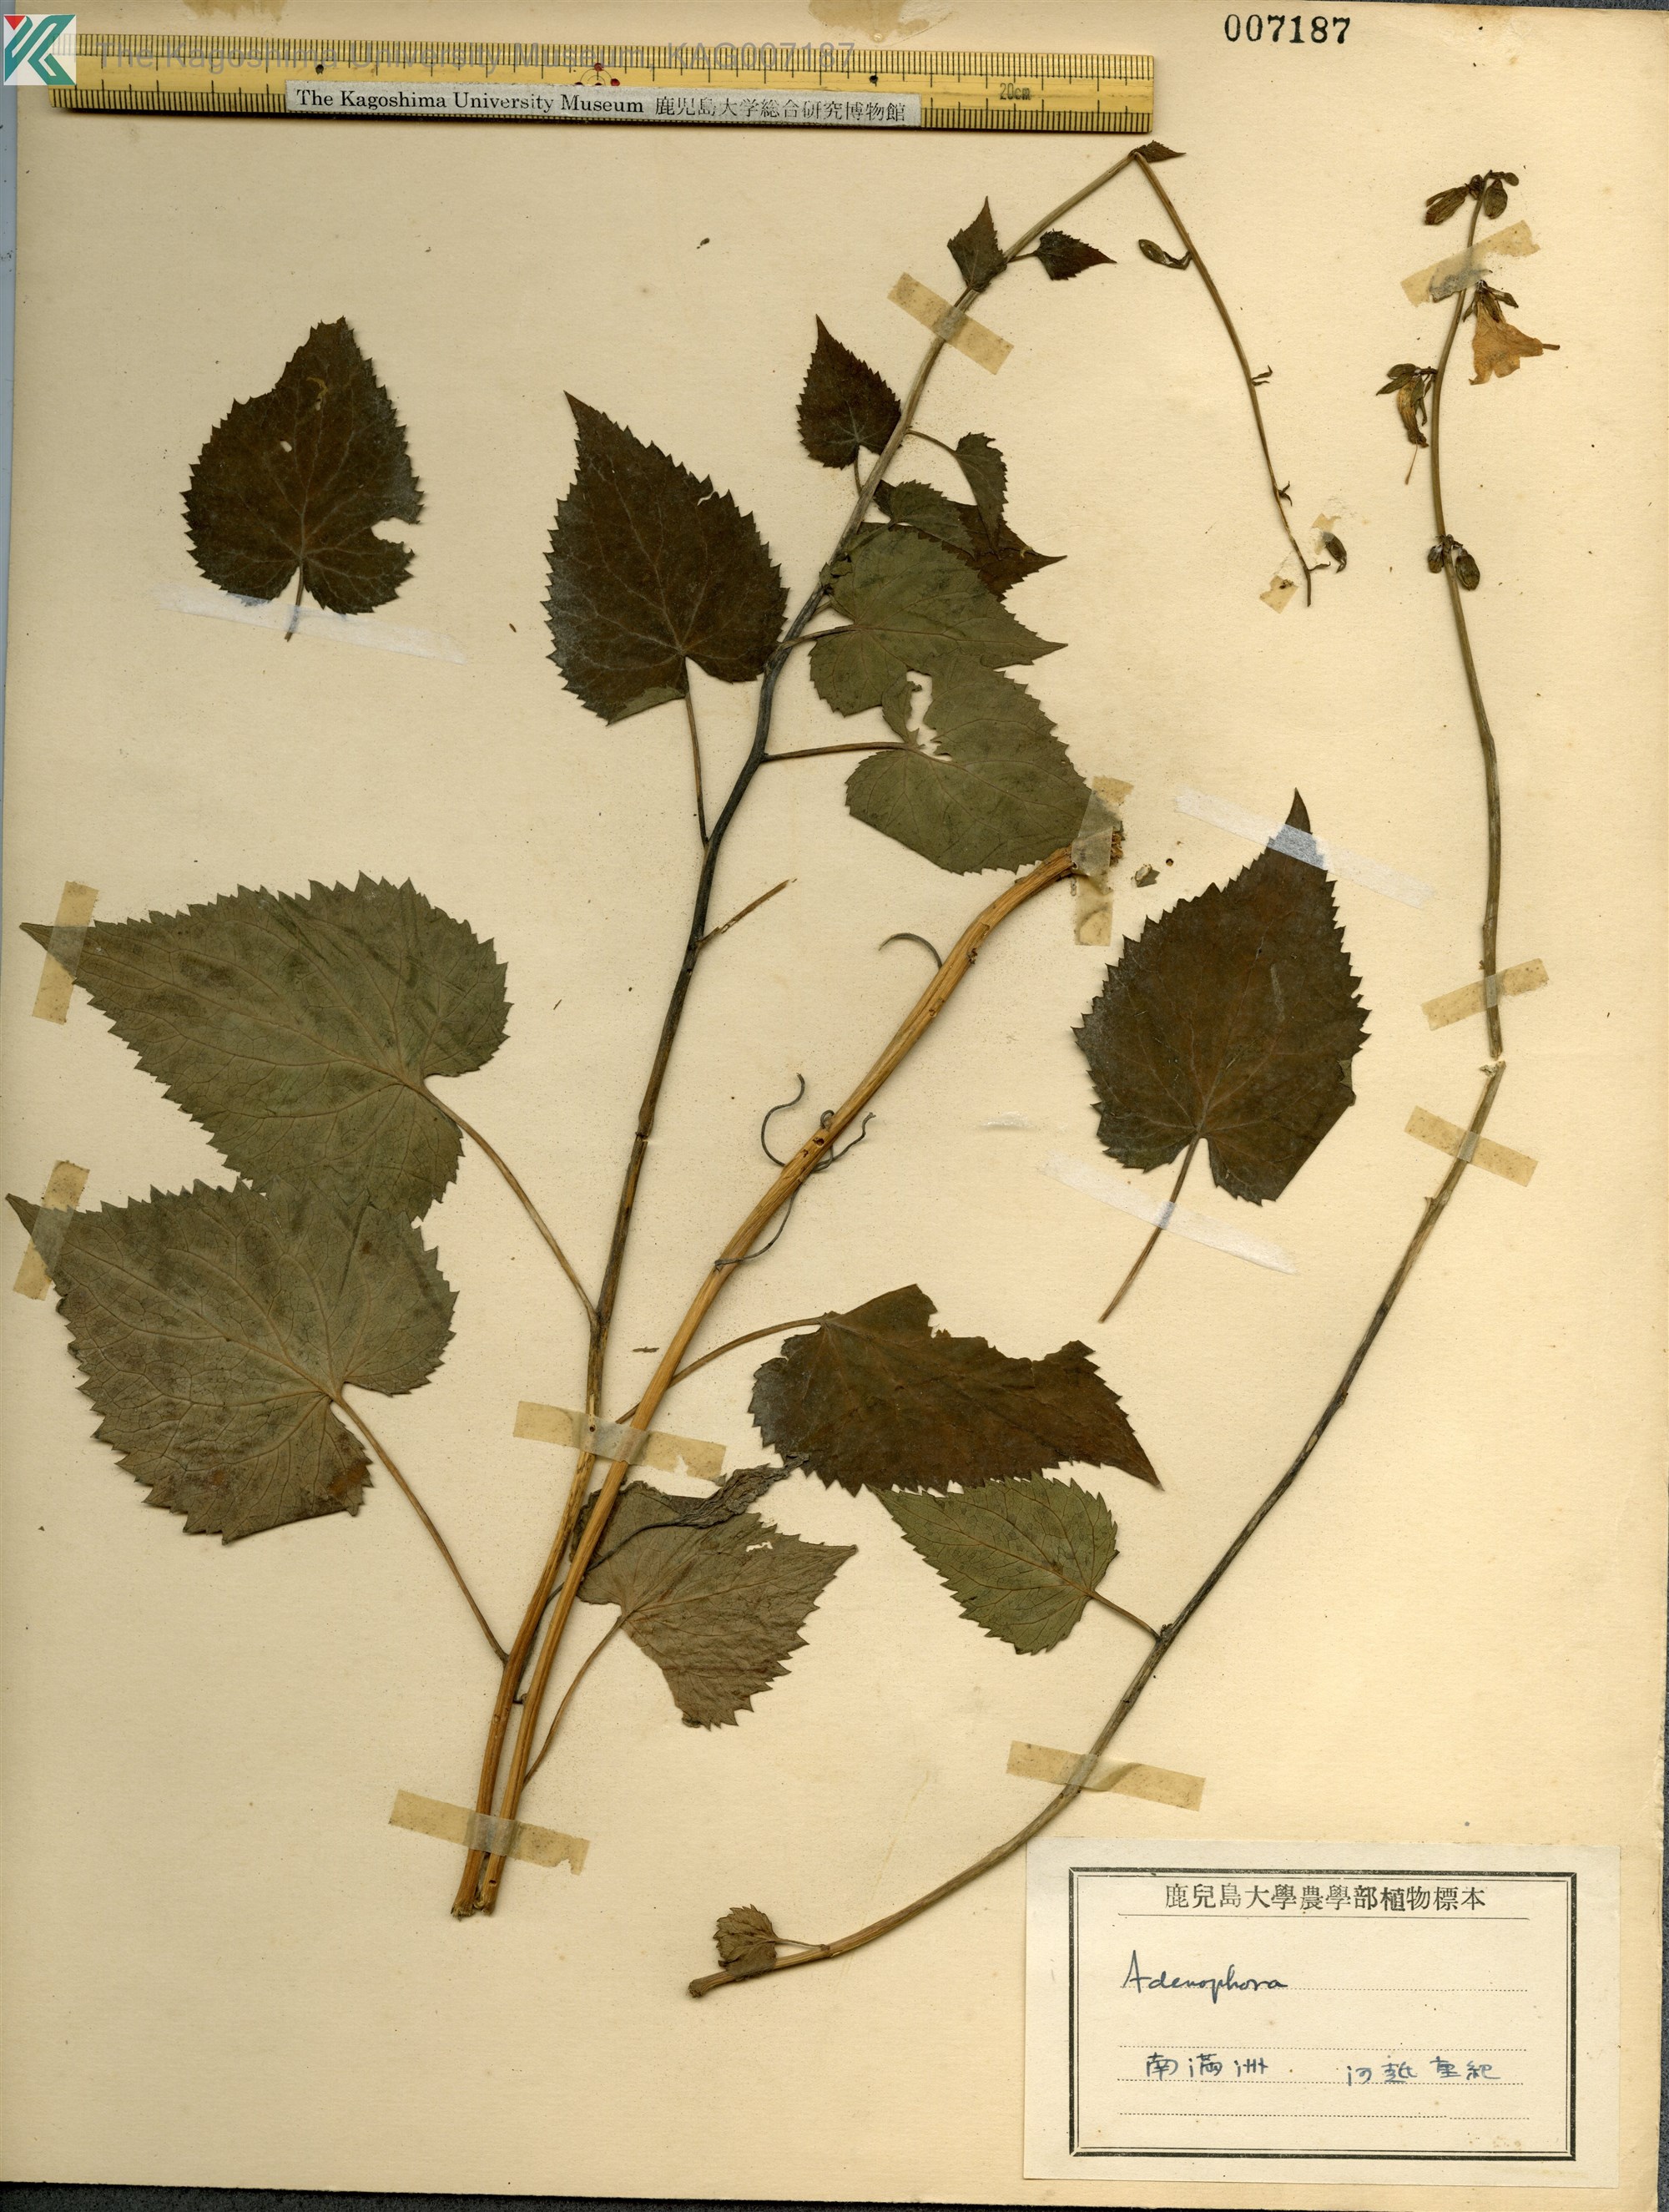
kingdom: Plantae
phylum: Tracheophyta
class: Magnoliopsida
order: Asterales
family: Campanulaceae
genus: Adenophora
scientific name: Adenophora
